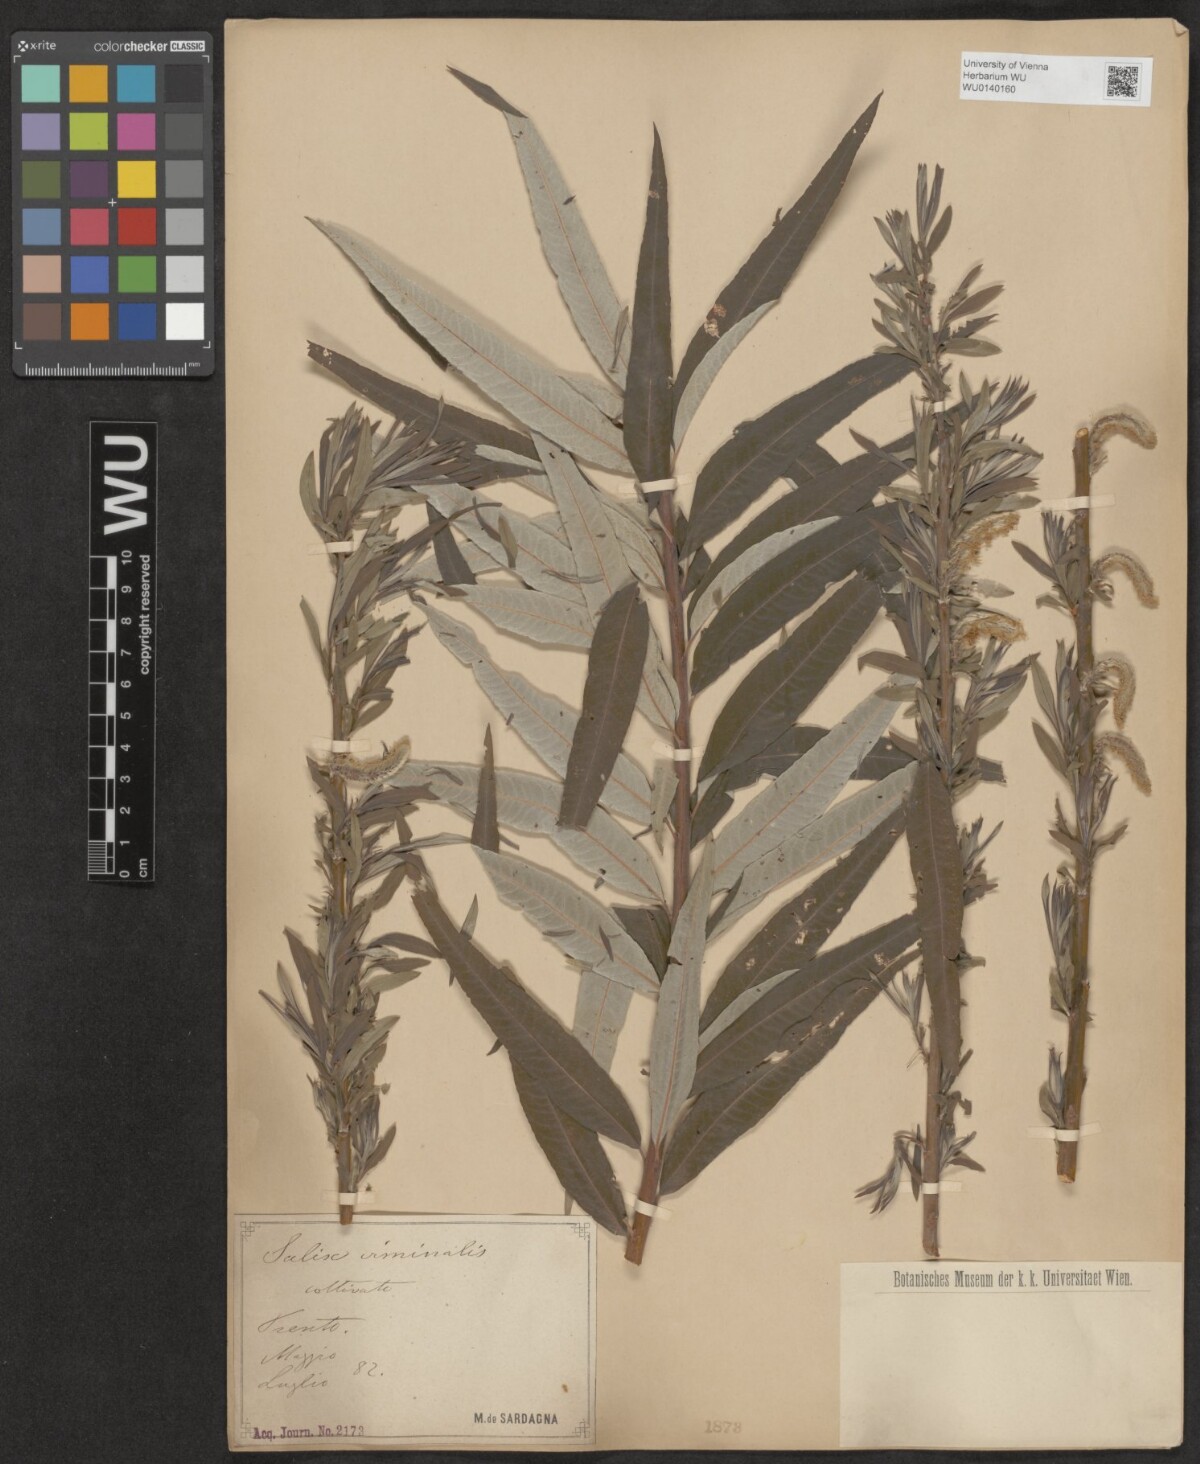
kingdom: Plantae
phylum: Tracheophyta
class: Magnoliopsida
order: Malpighiales
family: Salicaceae
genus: Salix
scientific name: Salix viminalis
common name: Osier
